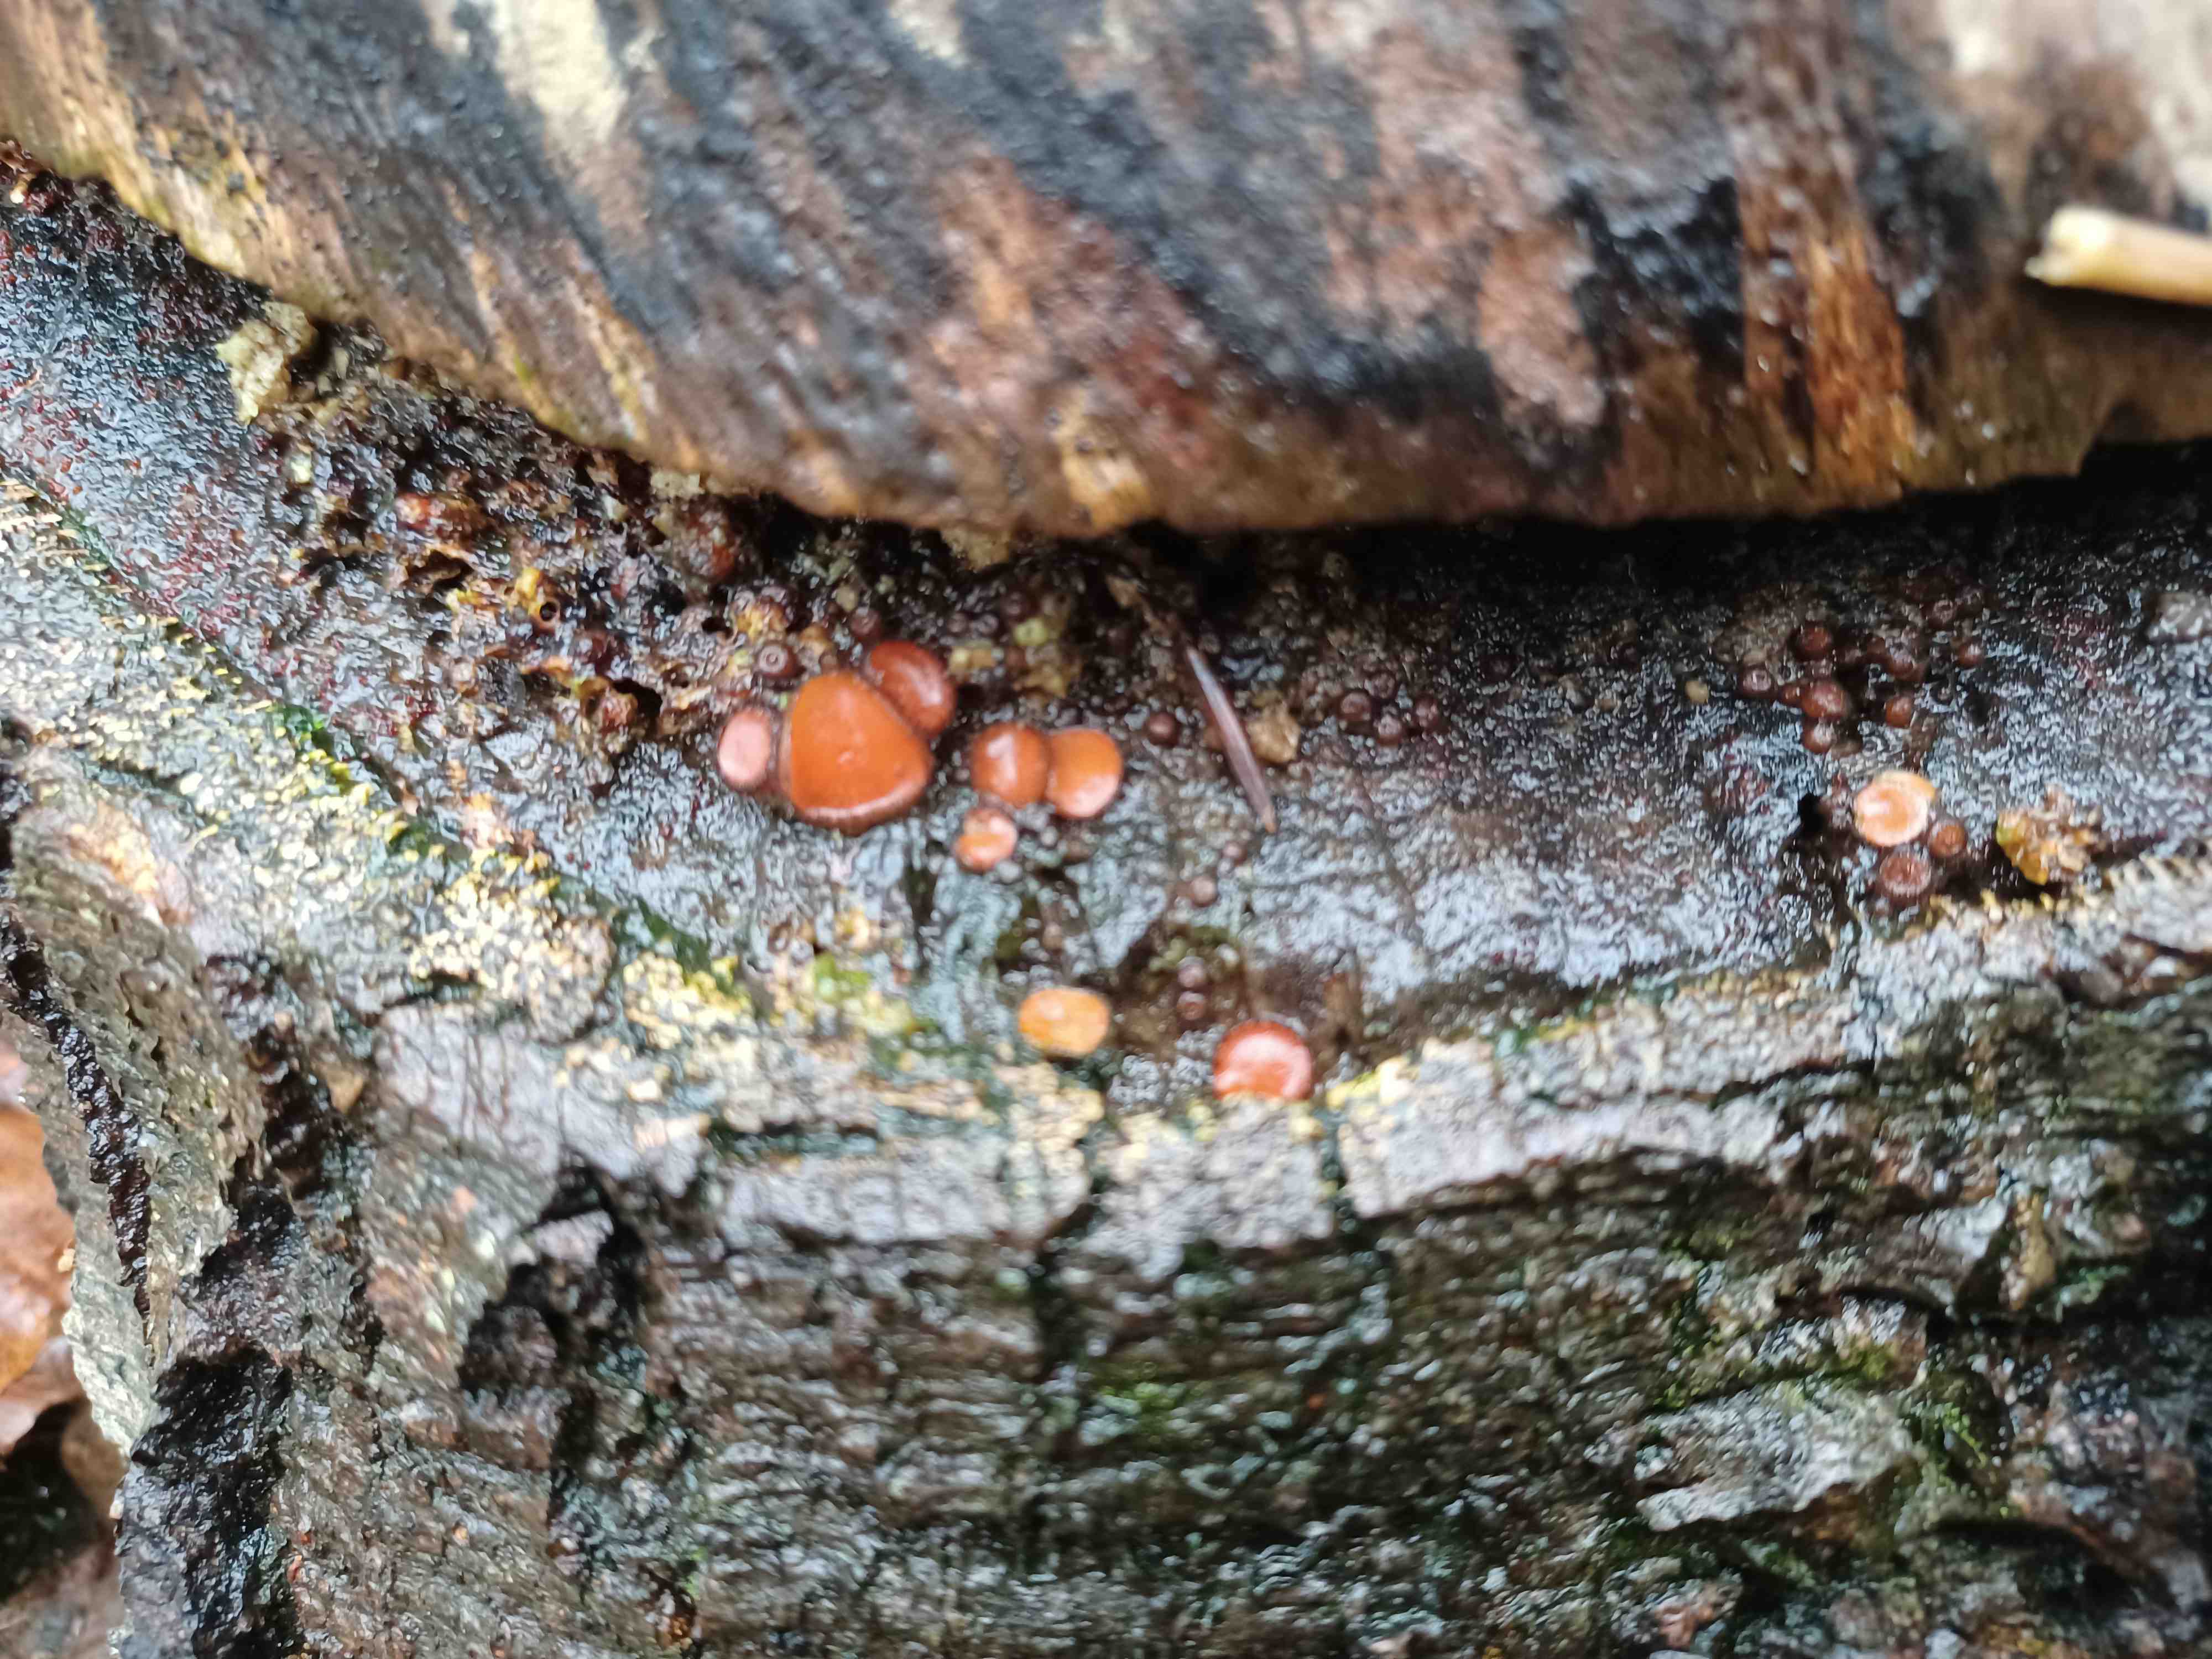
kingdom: Fungi
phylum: Ascomycota
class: Pezizomycetes
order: Pezizales
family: Pyronemataceae
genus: Scutellinia
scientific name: Scutellinia
